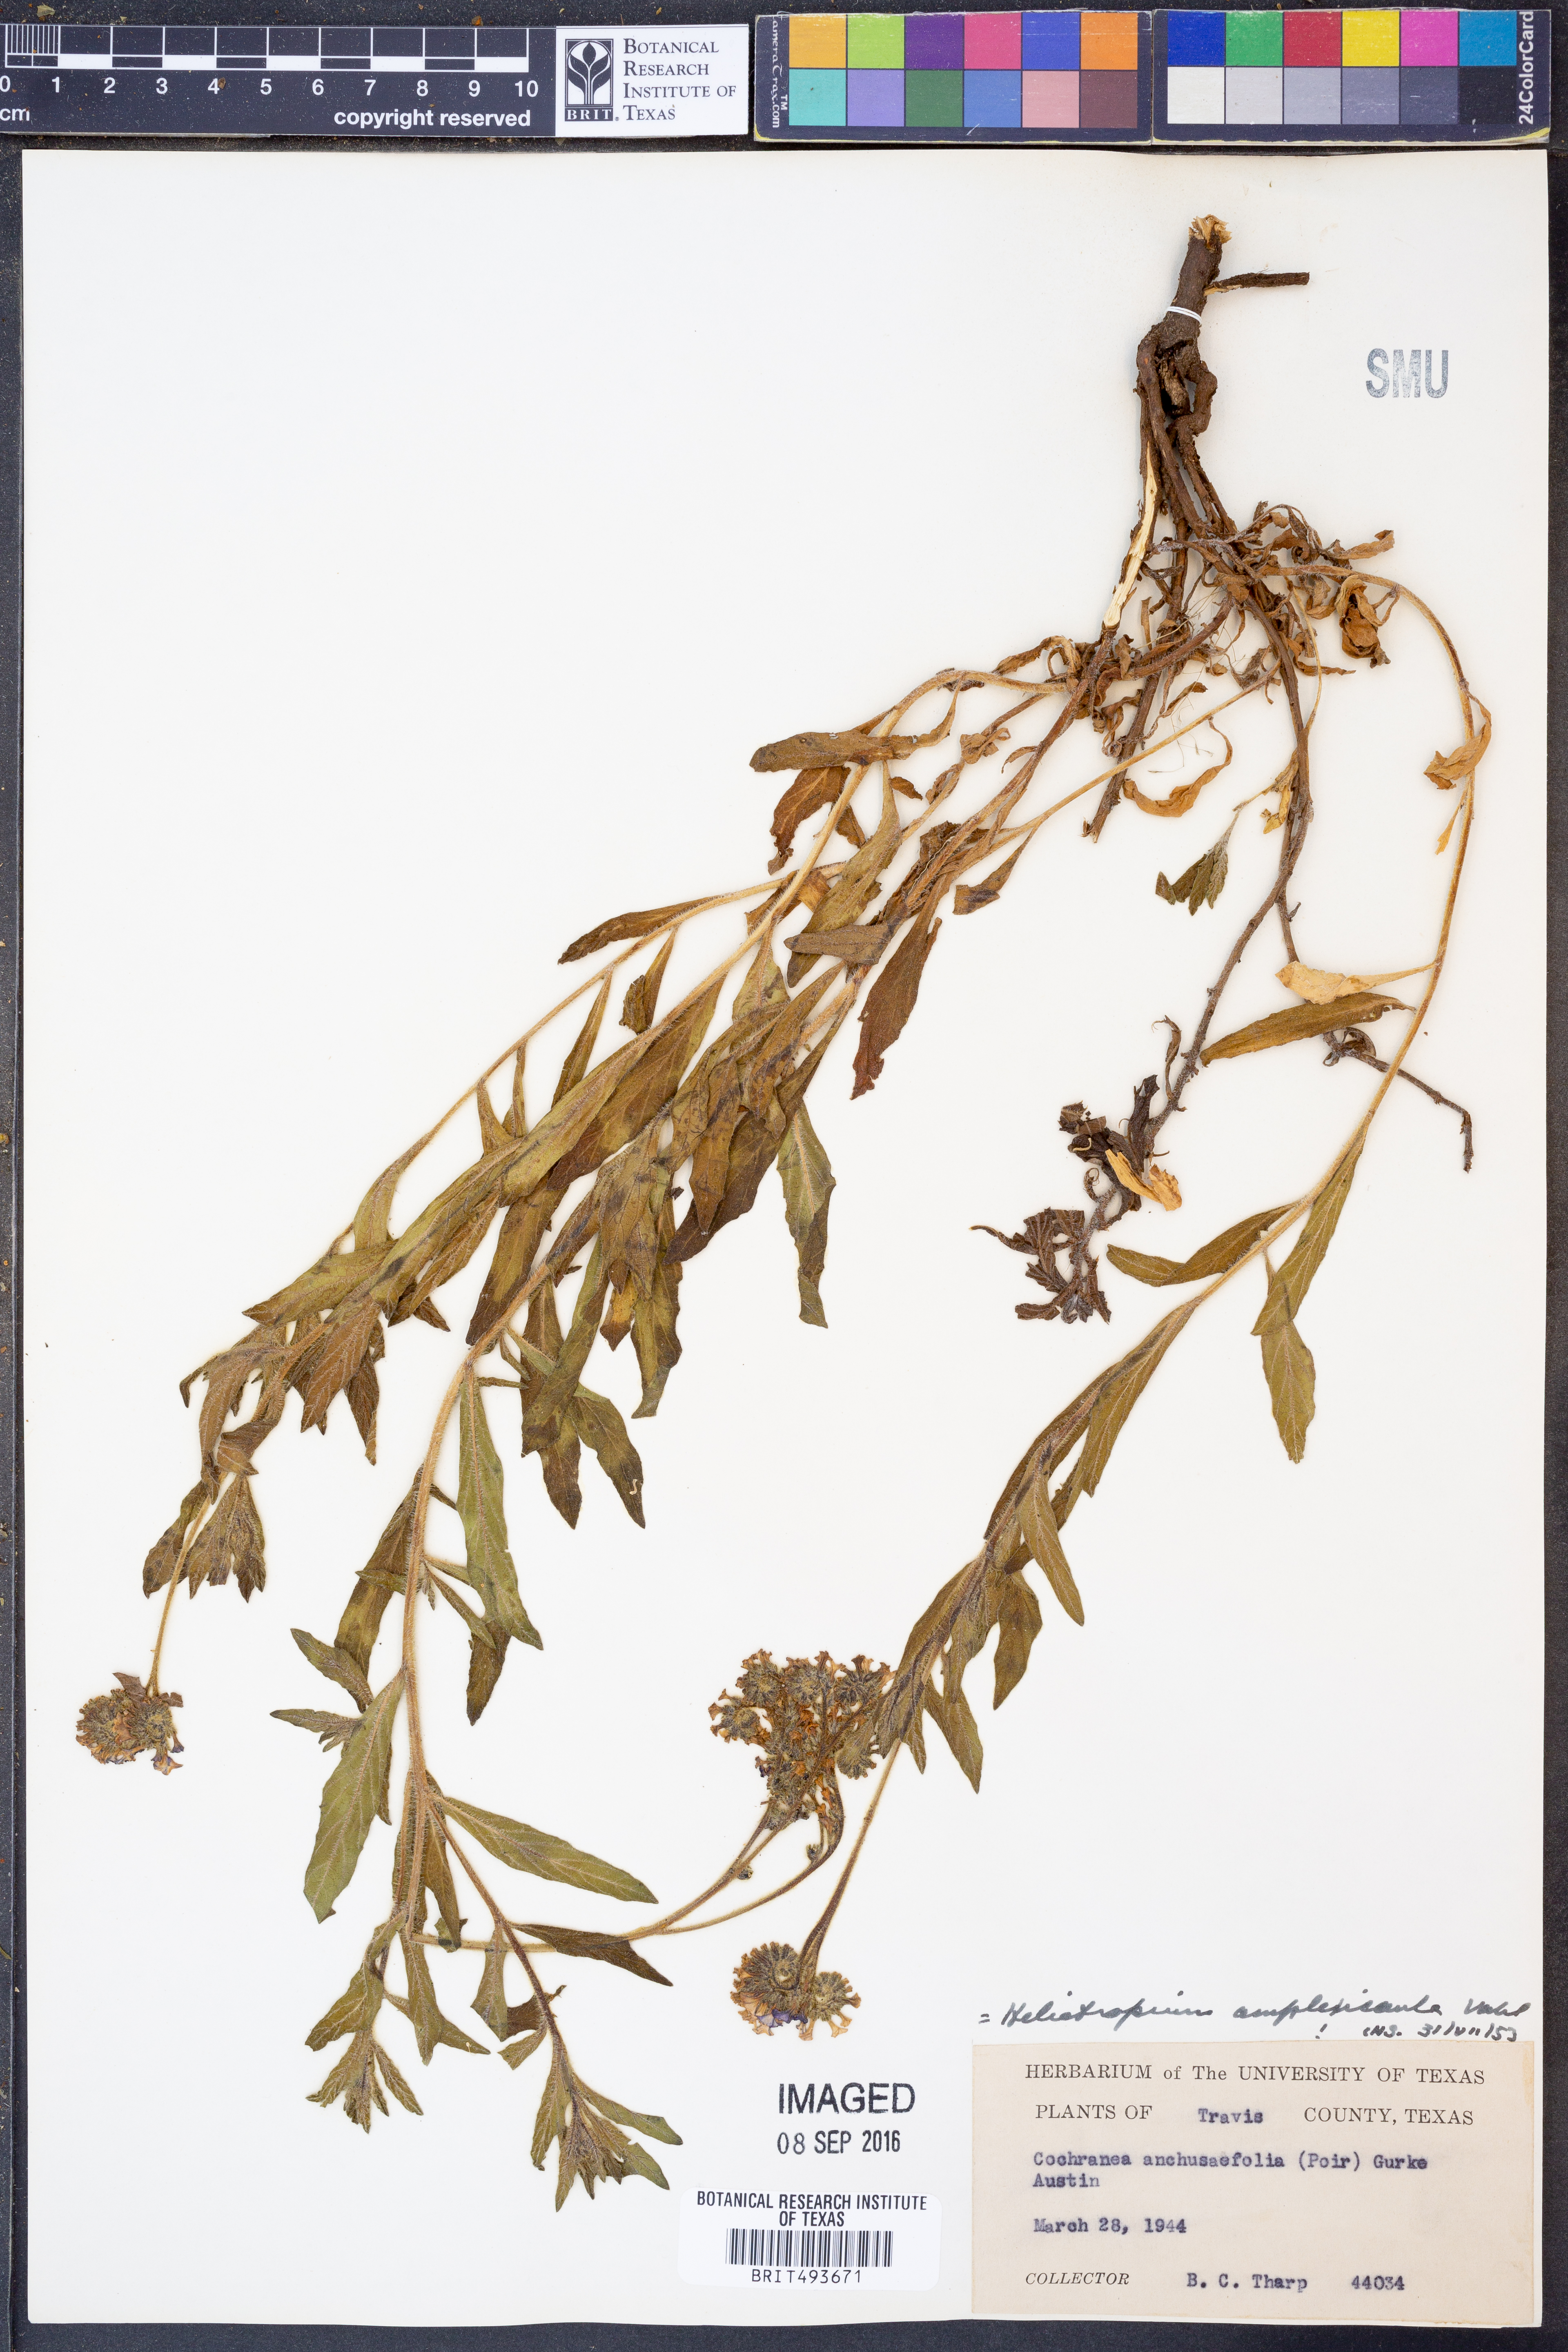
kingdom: Plantae
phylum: Tracheophyta
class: Magnoliopsida
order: Boraginales
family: Heliotropiaceae
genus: Heliotropium
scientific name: Heliotropium amplexicaule
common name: Clasping heliotrope
